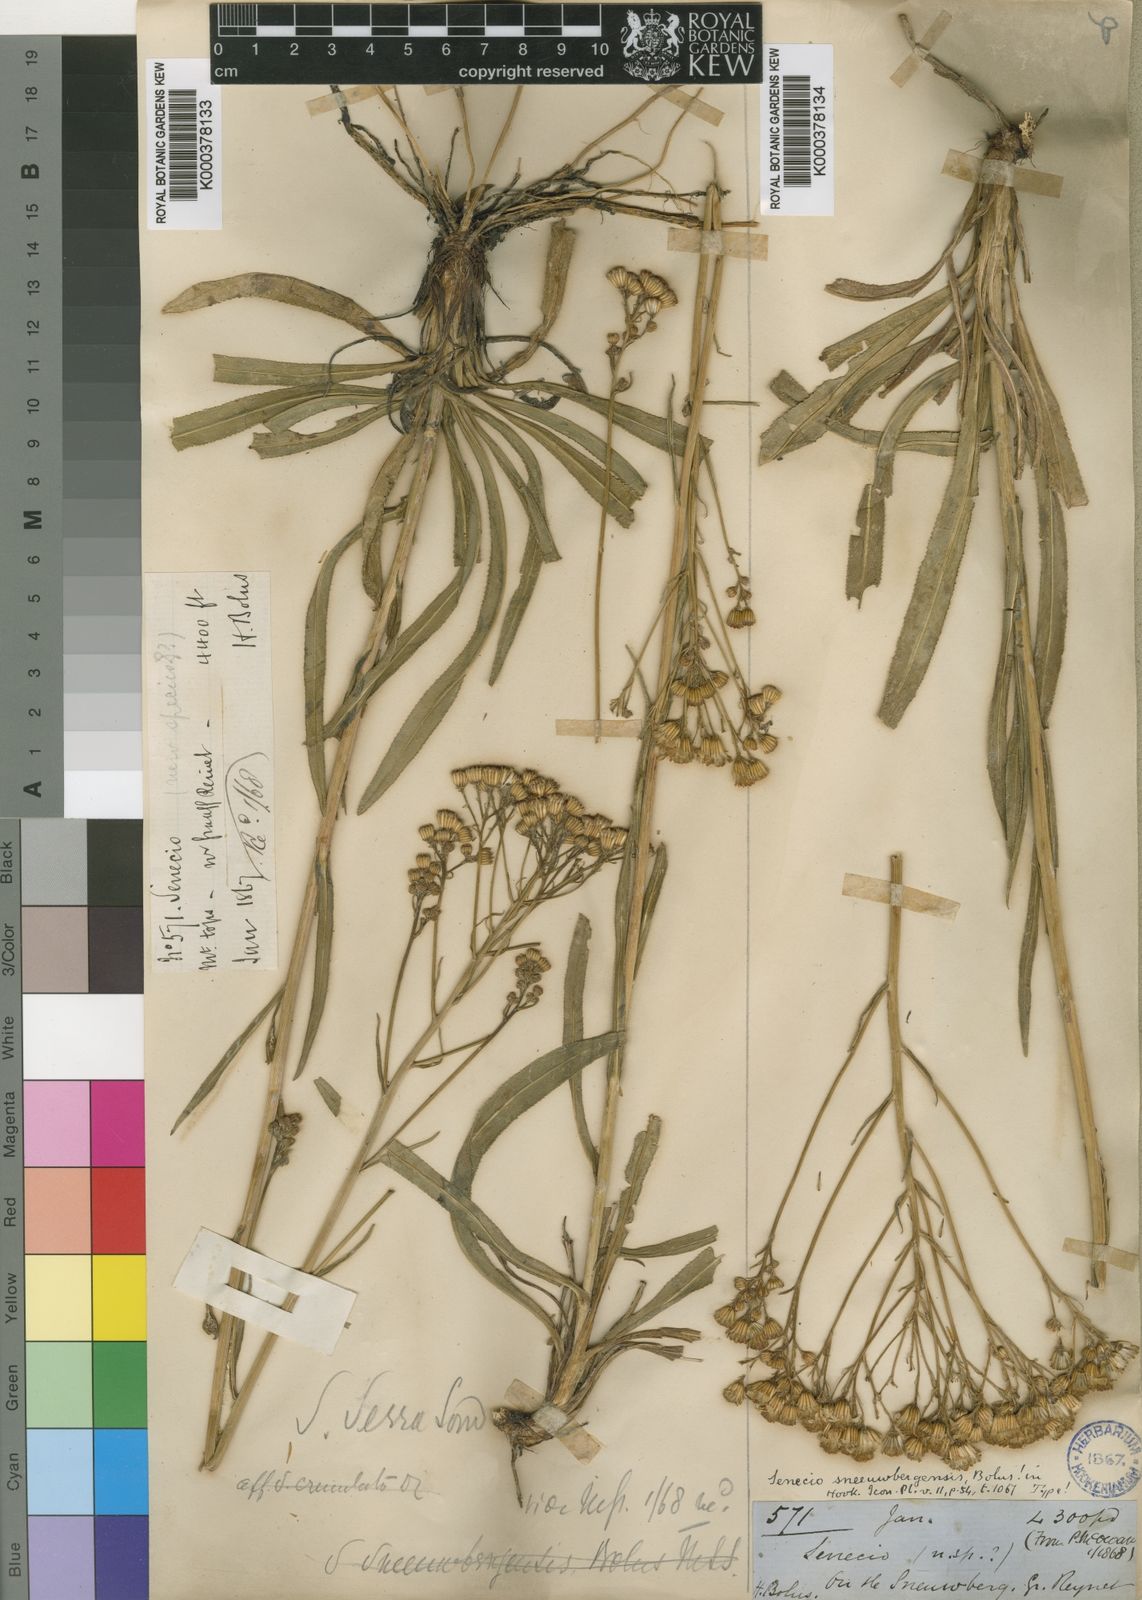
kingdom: Plantae
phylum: Tracheophyta
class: Magnoliopsida
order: Asterales
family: Asteraceae
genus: Senecio
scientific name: Senecio inornatus
